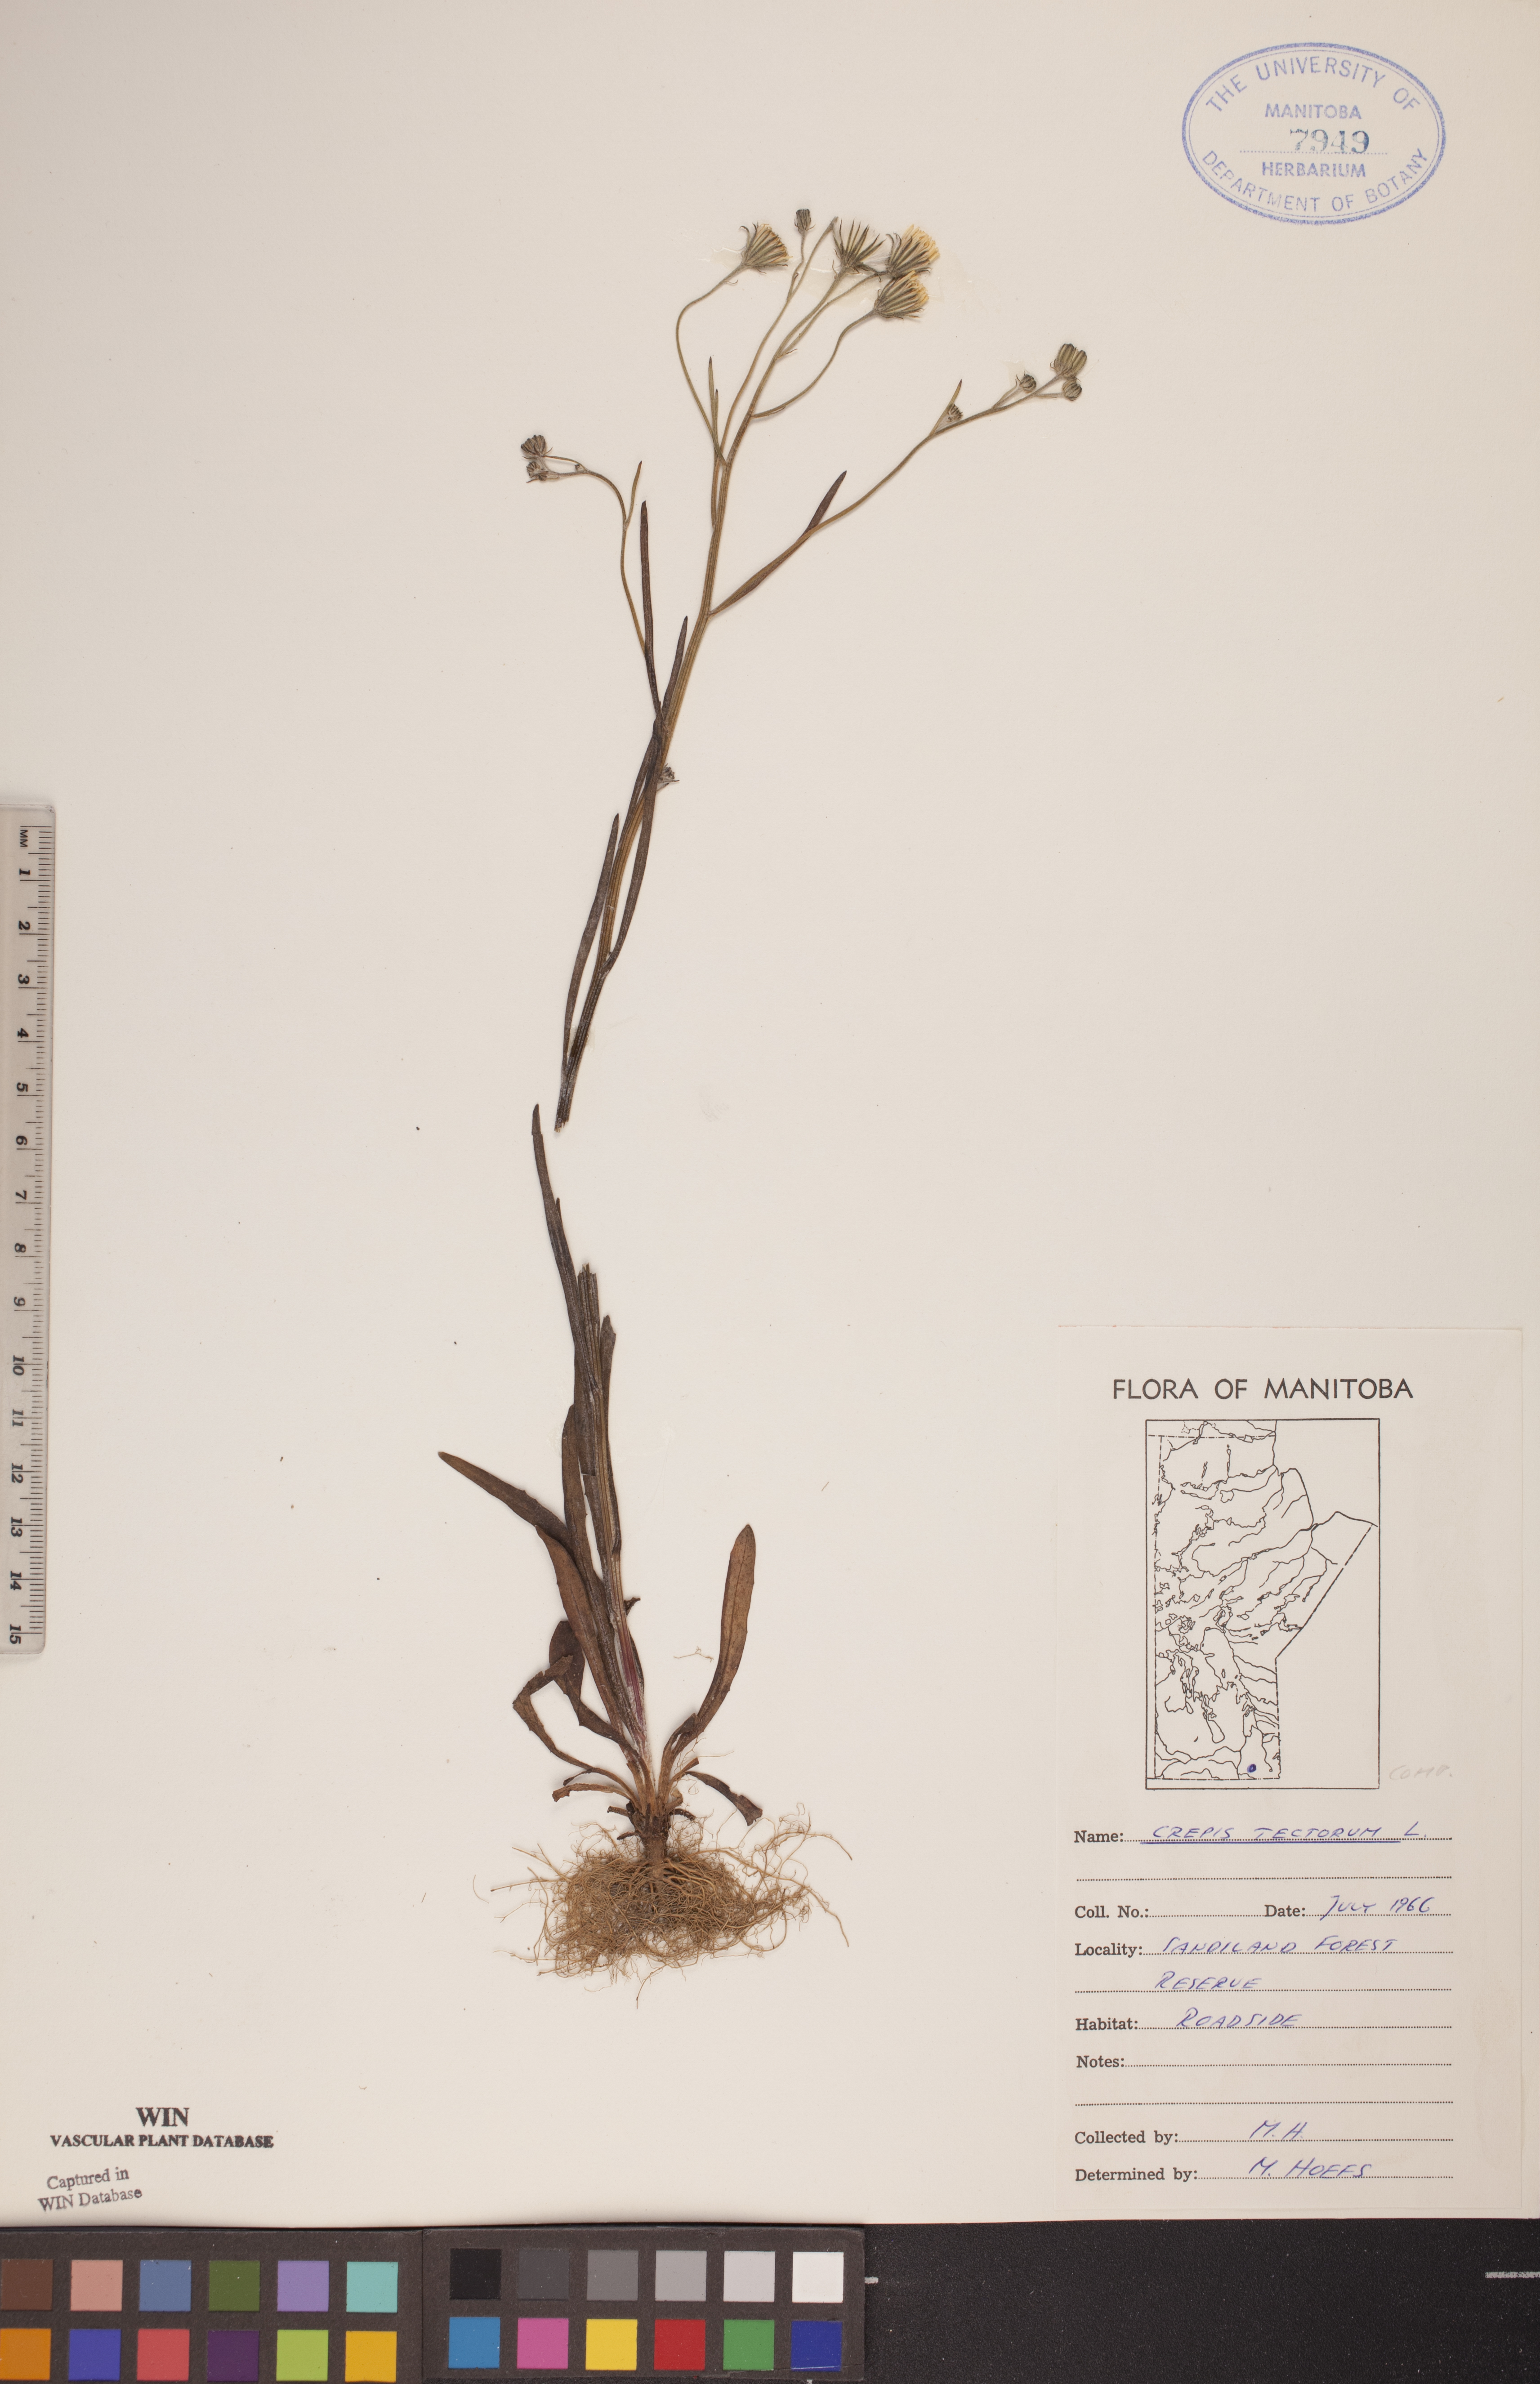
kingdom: Plantae
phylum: Tracheophyta
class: Magnoliopsida
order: Asterales
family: Asteraceae
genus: Crepis
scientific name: Crepis tectorum
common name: Narrow-leaved hawk's-beard
